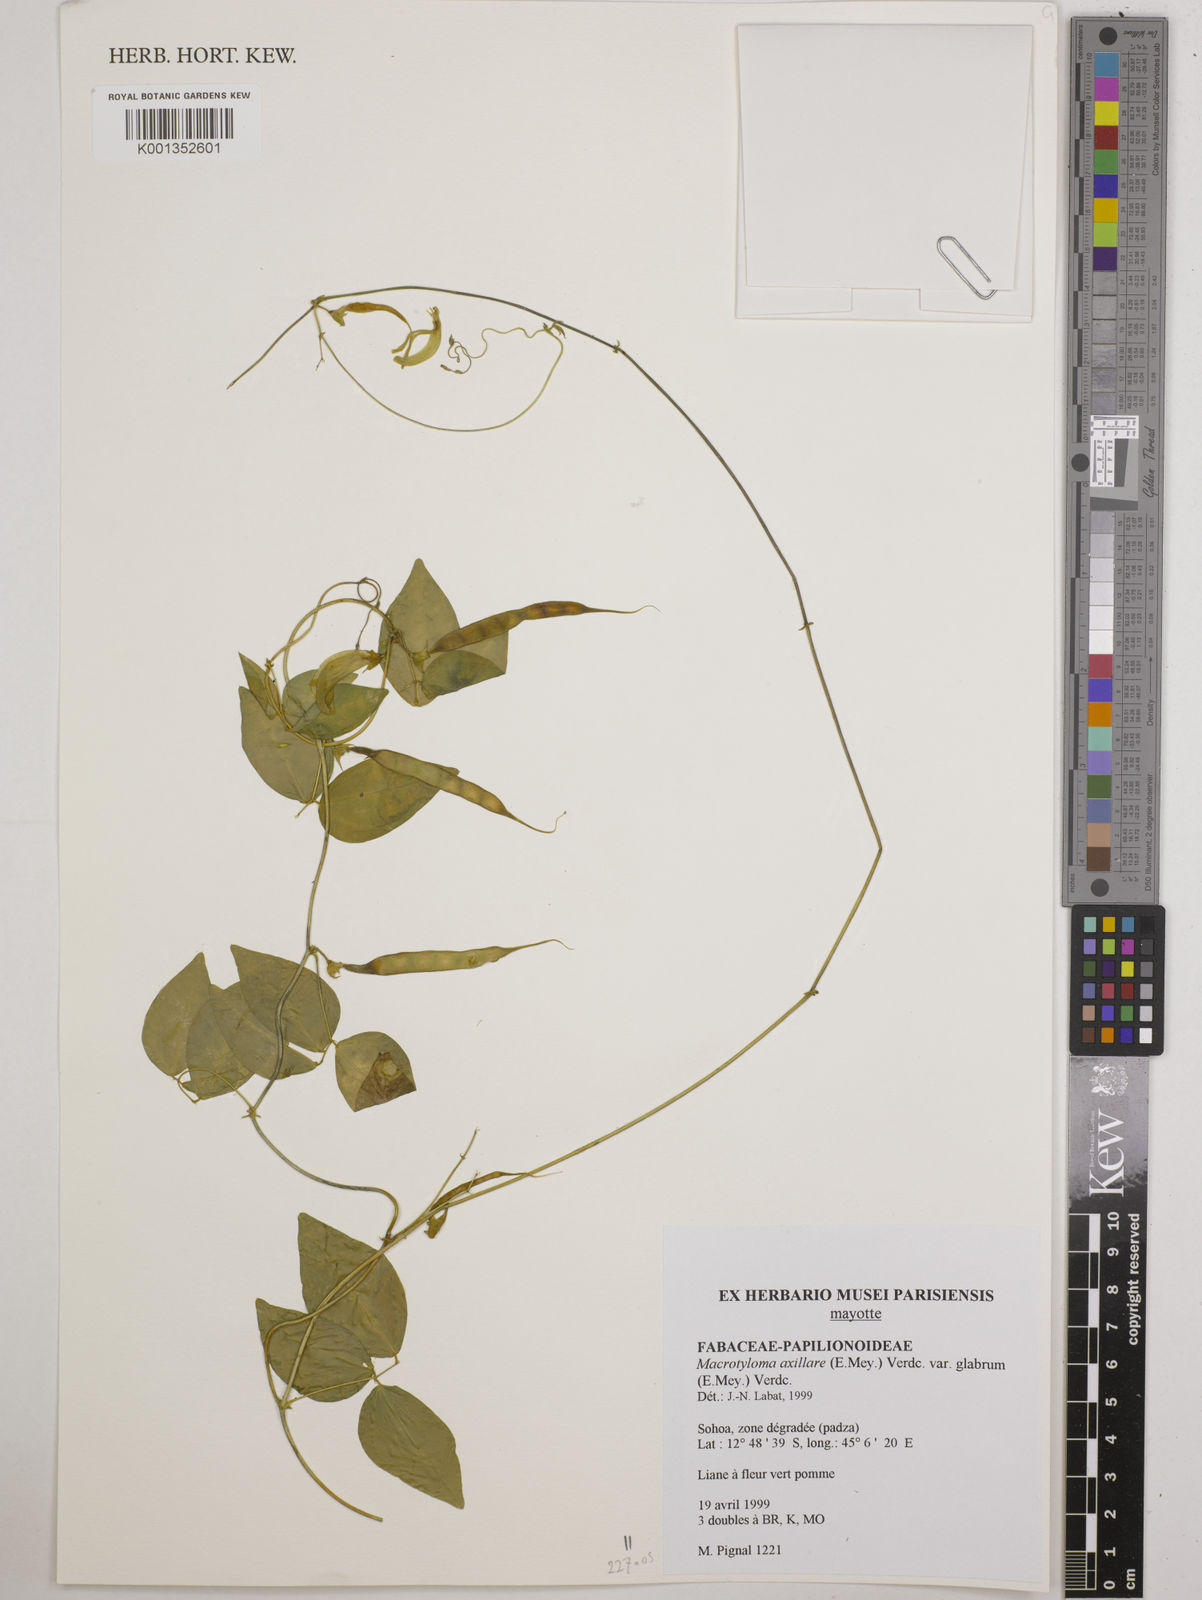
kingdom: Plantae
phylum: Tracheophyta
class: Magnoliopsida
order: Fabales
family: Fabaceae
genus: Macrotyloma
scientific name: Macrotyloma
